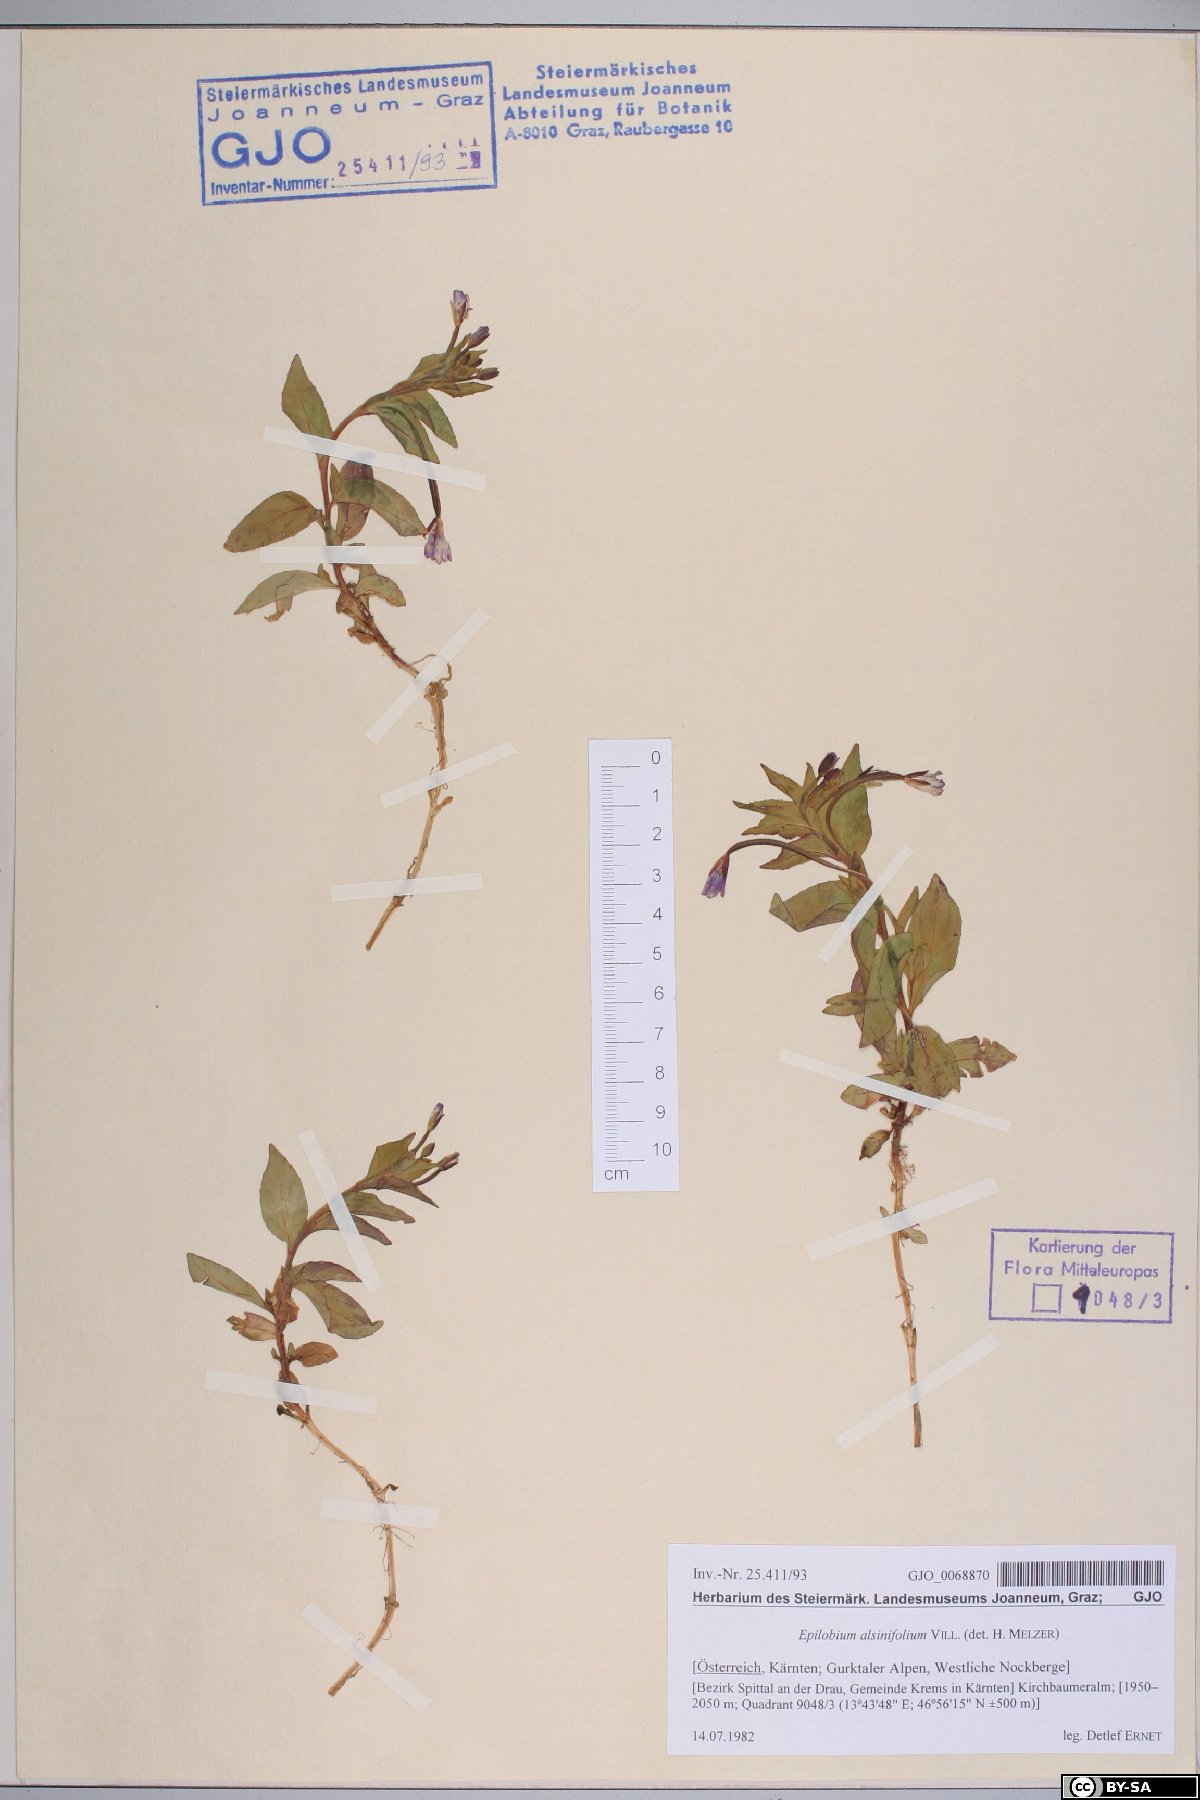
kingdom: Plantae
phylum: Tracheophyta
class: Magnoliopsida
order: Myrtales
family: Onagraceae
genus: Epilobium
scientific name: Epilobium alsinifolium
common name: Chickweed willowherb
